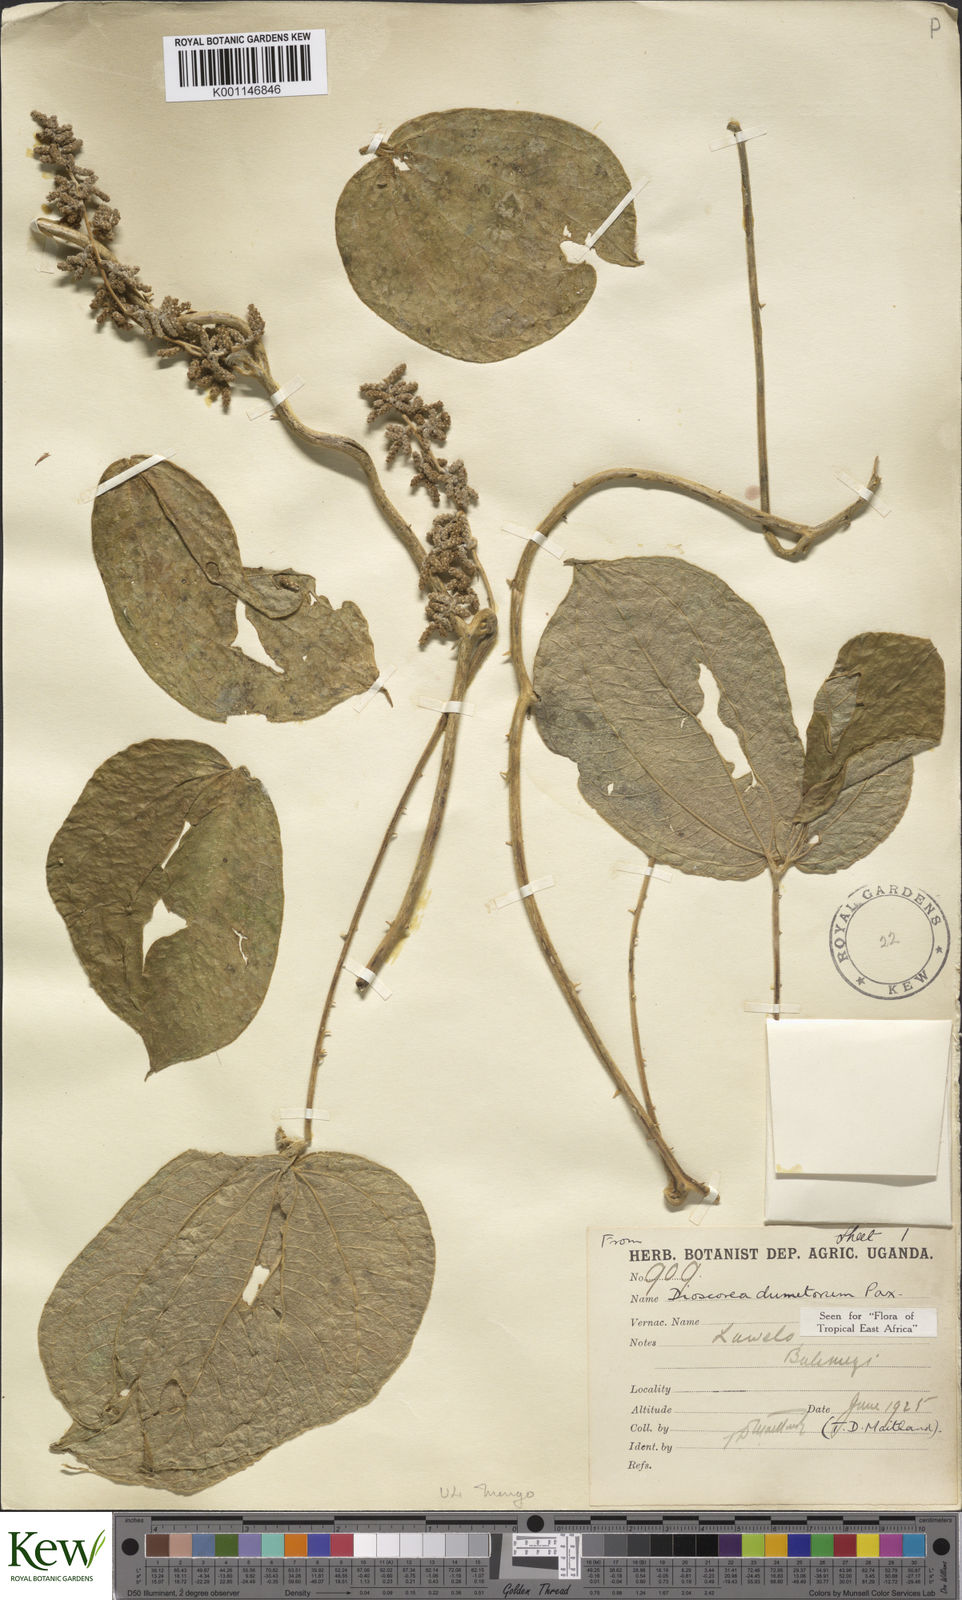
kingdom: Plantae
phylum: Tracheophyta
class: Liliopsida
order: Dioscoreales
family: Dioscoreaceae
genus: Dioscorea
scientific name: Dioscorea dumetorum
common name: African bitter yam
